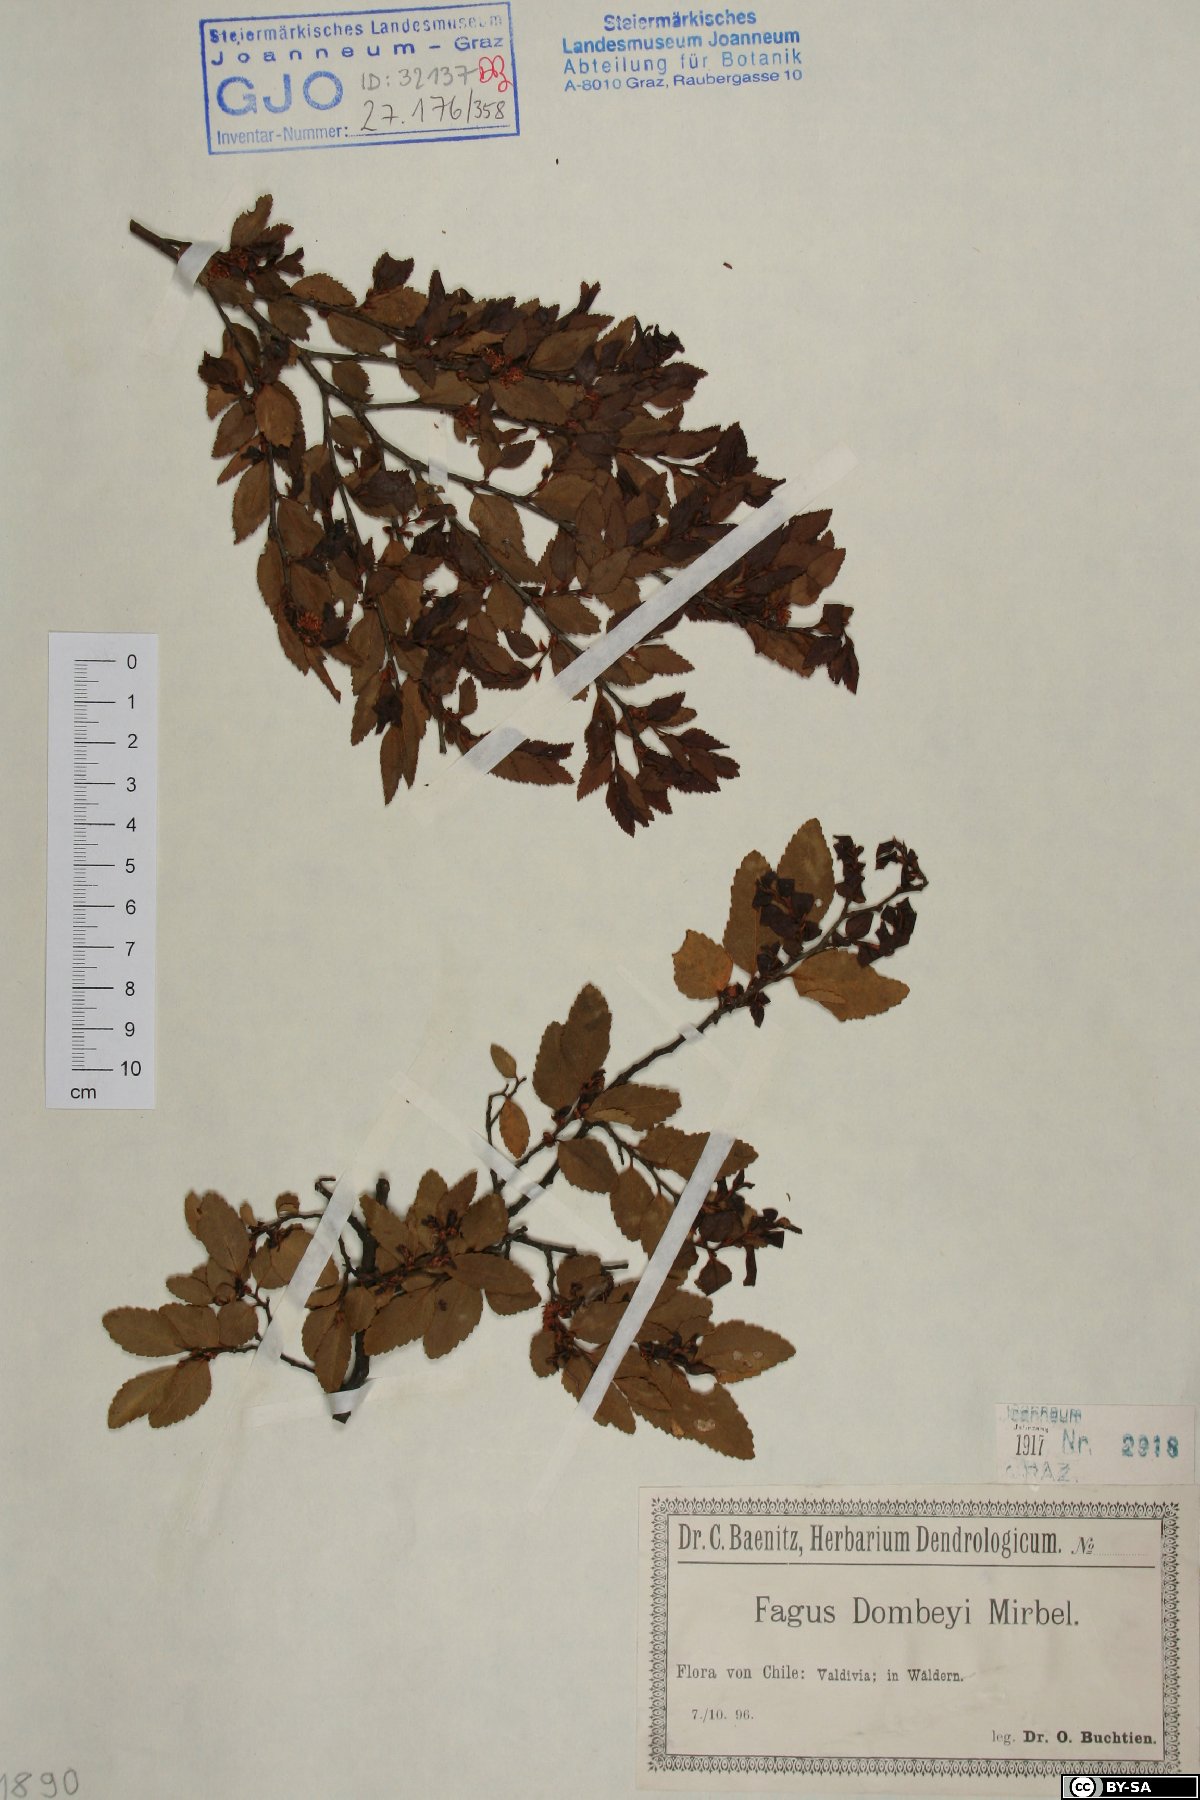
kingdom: Plantae
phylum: Tracheophyta
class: Magnoliopsida
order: Fagales
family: Nothofagaceae
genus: Nothofagus
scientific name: Nothofagus dombeyi
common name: Coigue
